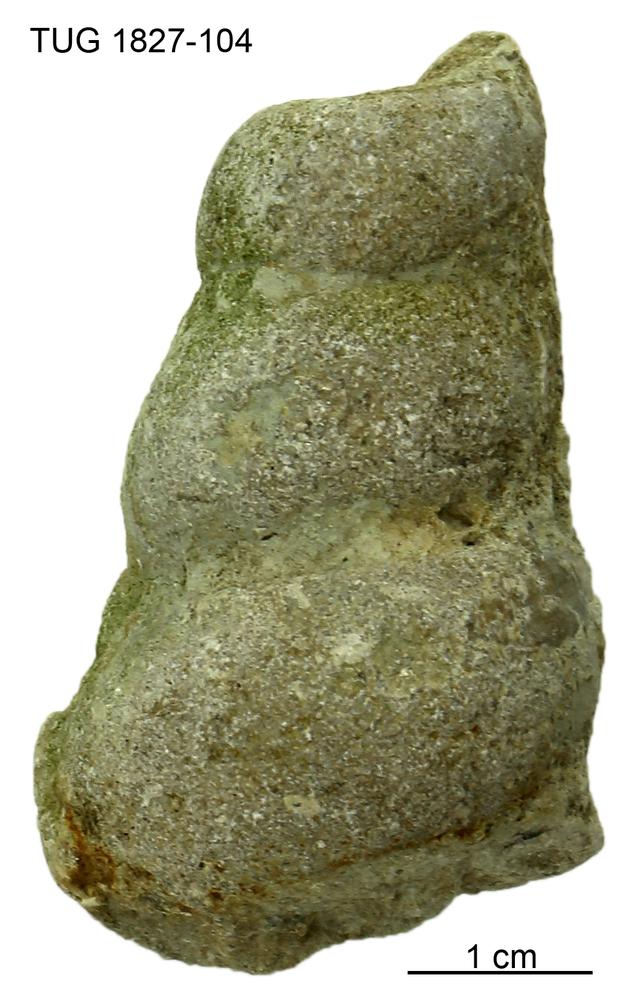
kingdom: Animalia
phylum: Mollusca
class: Gastropoda
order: Pleurotomariida
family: Murchisoniidae
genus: Hormotoma
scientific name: Hormotoma
